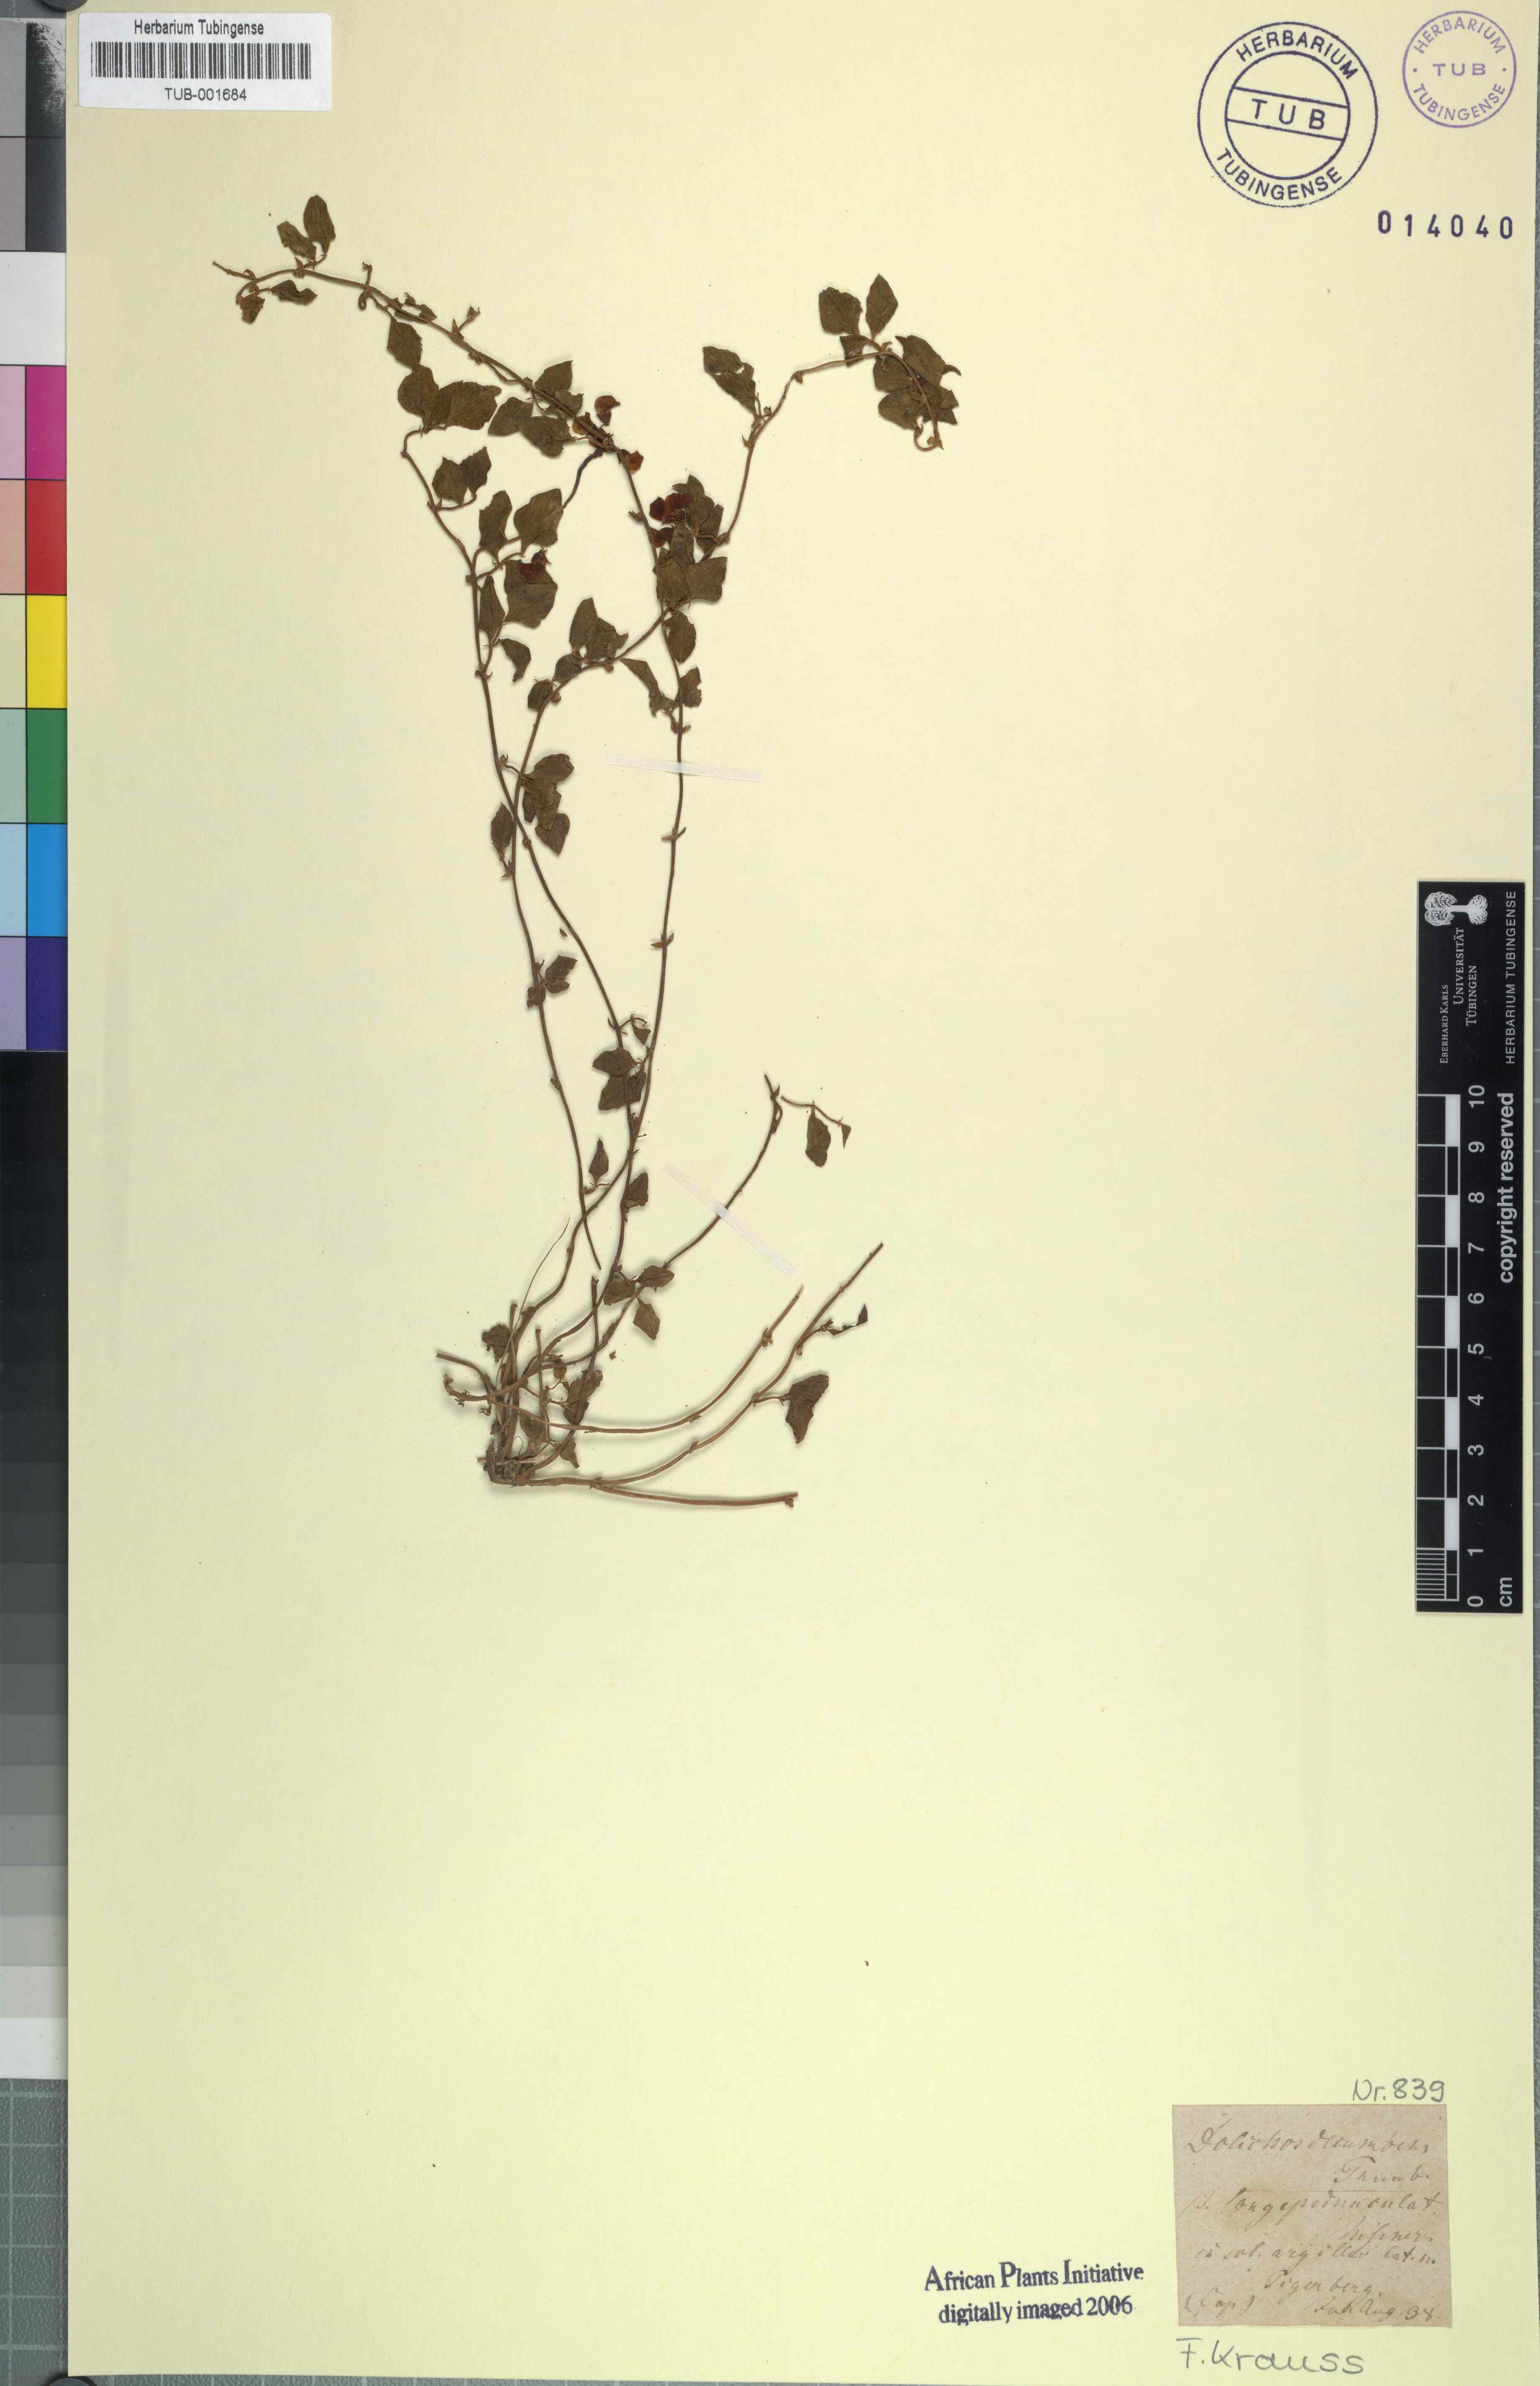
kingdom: Plantae
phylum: Tracheophyta
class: Magnoliopsida
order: Fabales
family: Fabaceae
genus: Dolichos
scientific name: Dolichos decumbens
